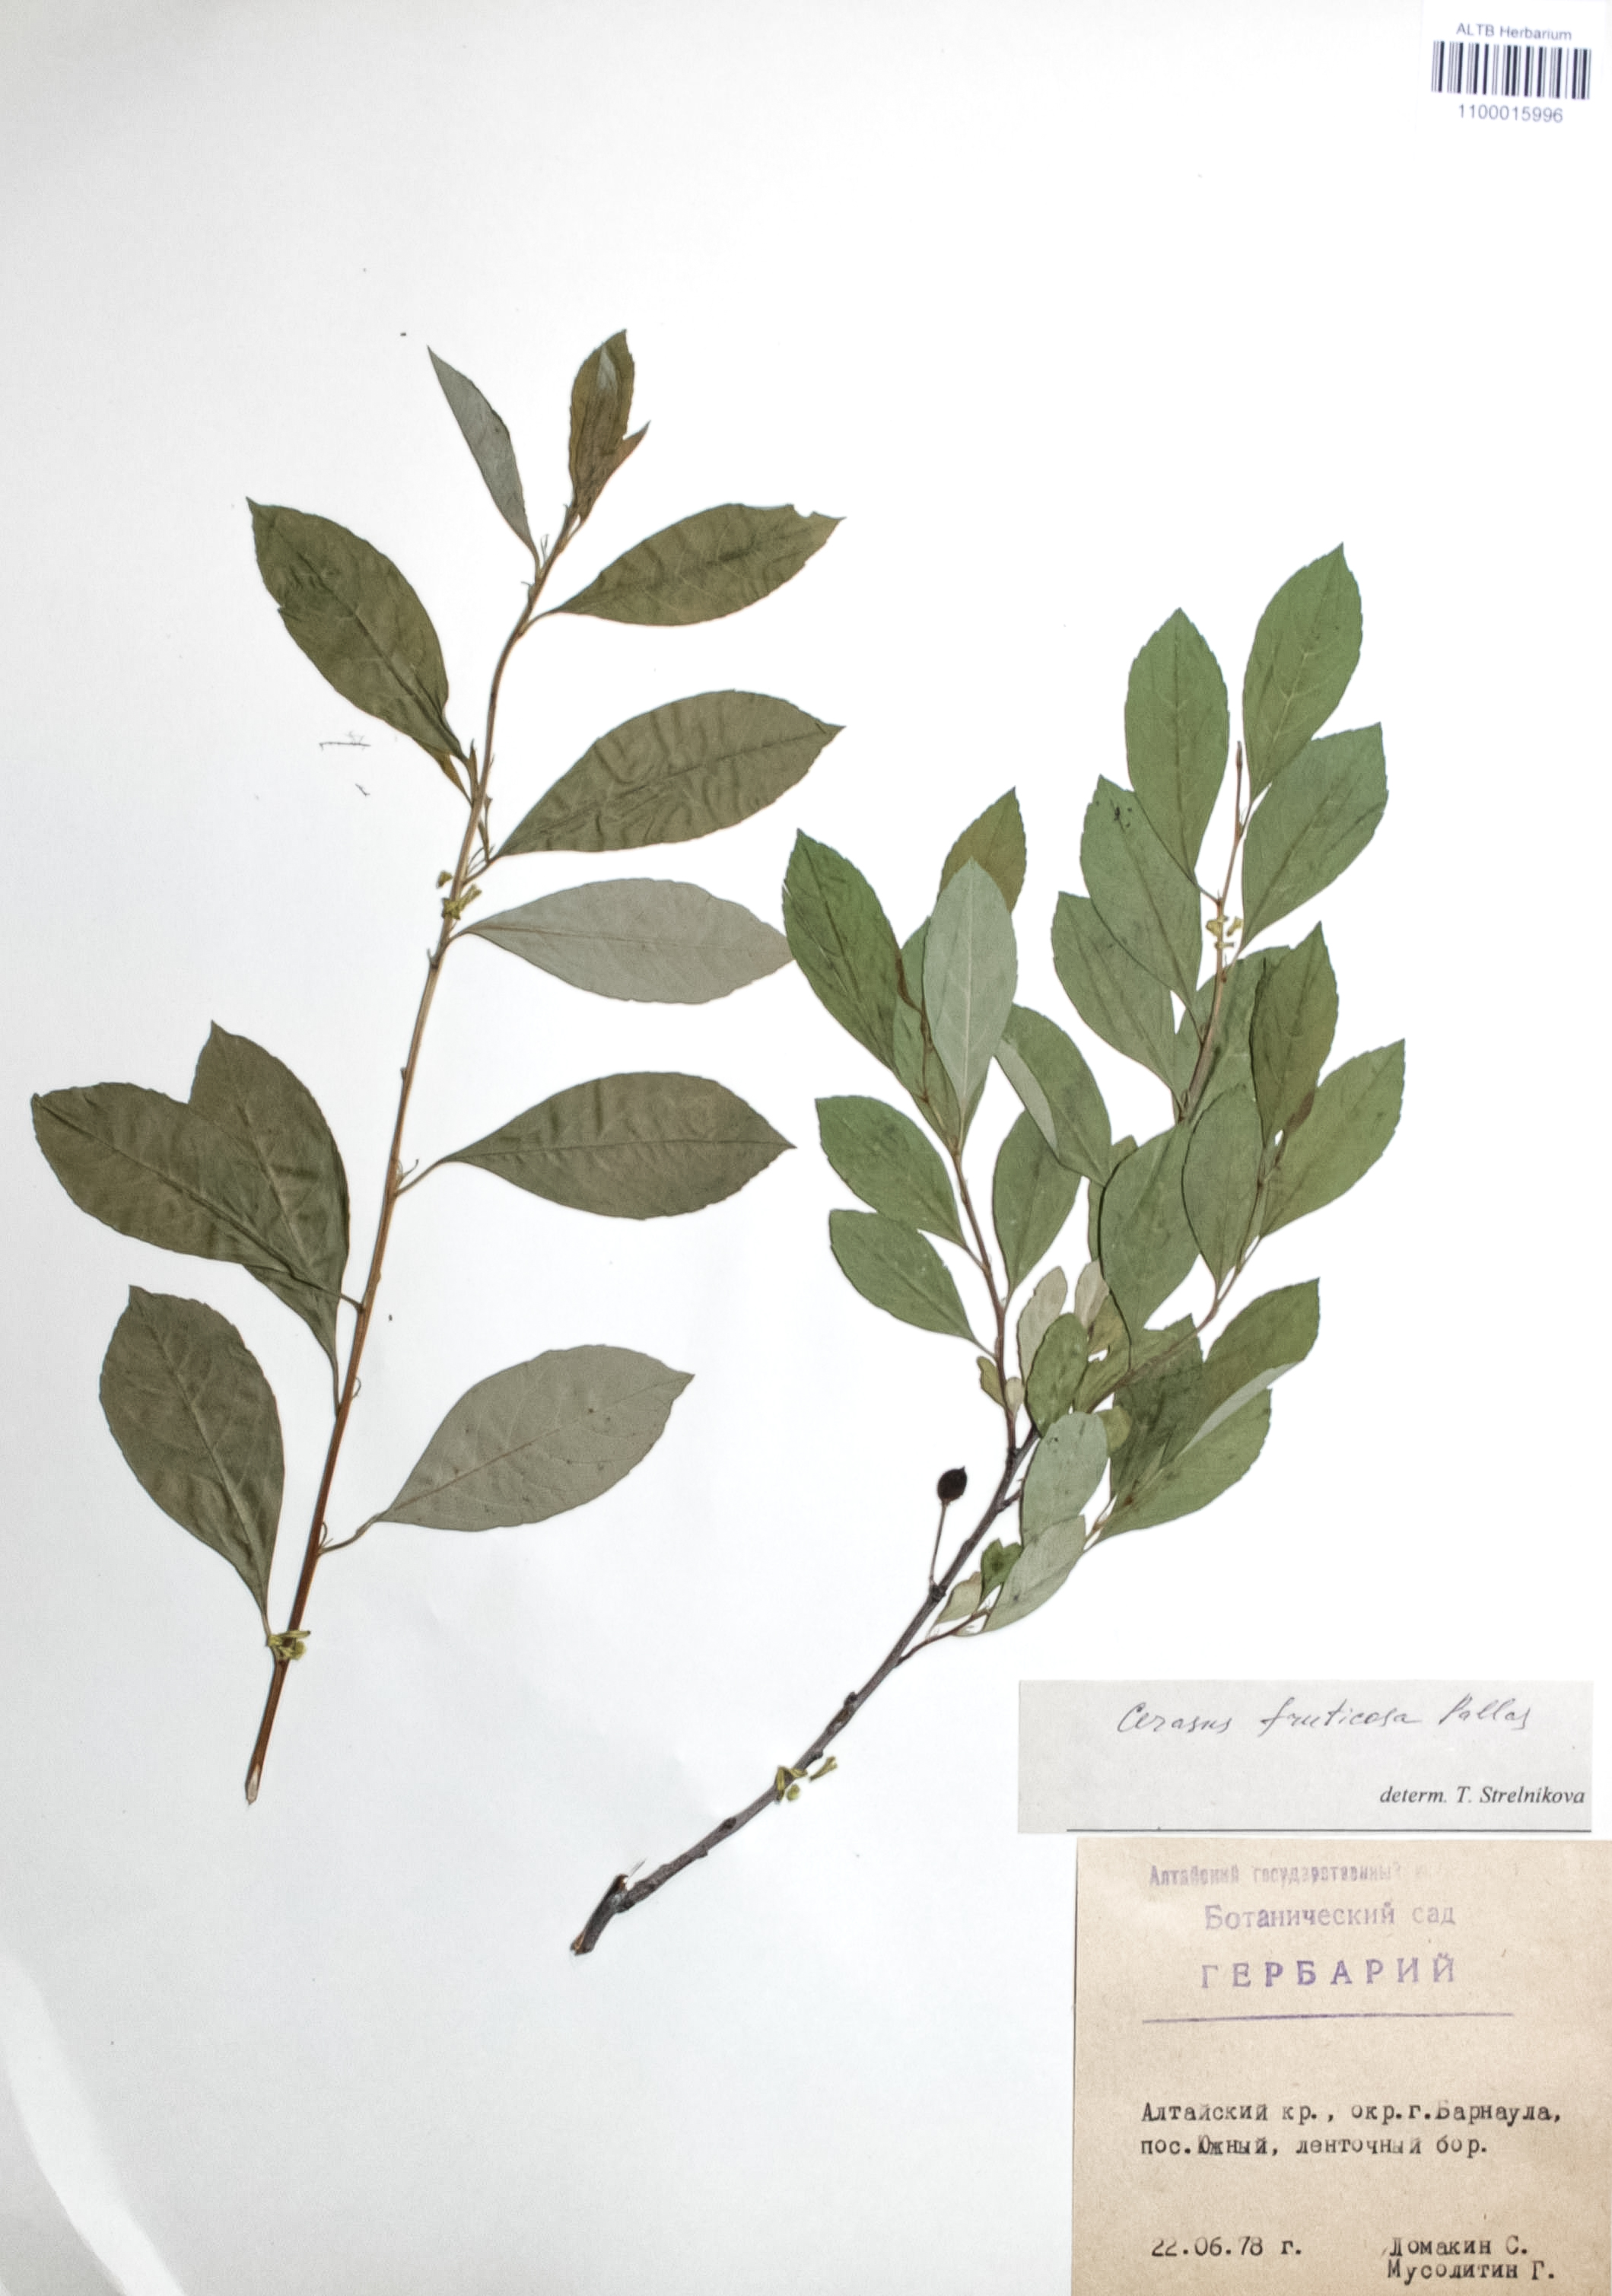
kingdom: Plantae
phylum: Tracheophyta
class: Magnoliopsida
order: Rosales
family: Rosaceae
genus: Prunus
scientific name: Prunus cerasus
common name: Morello cherry
